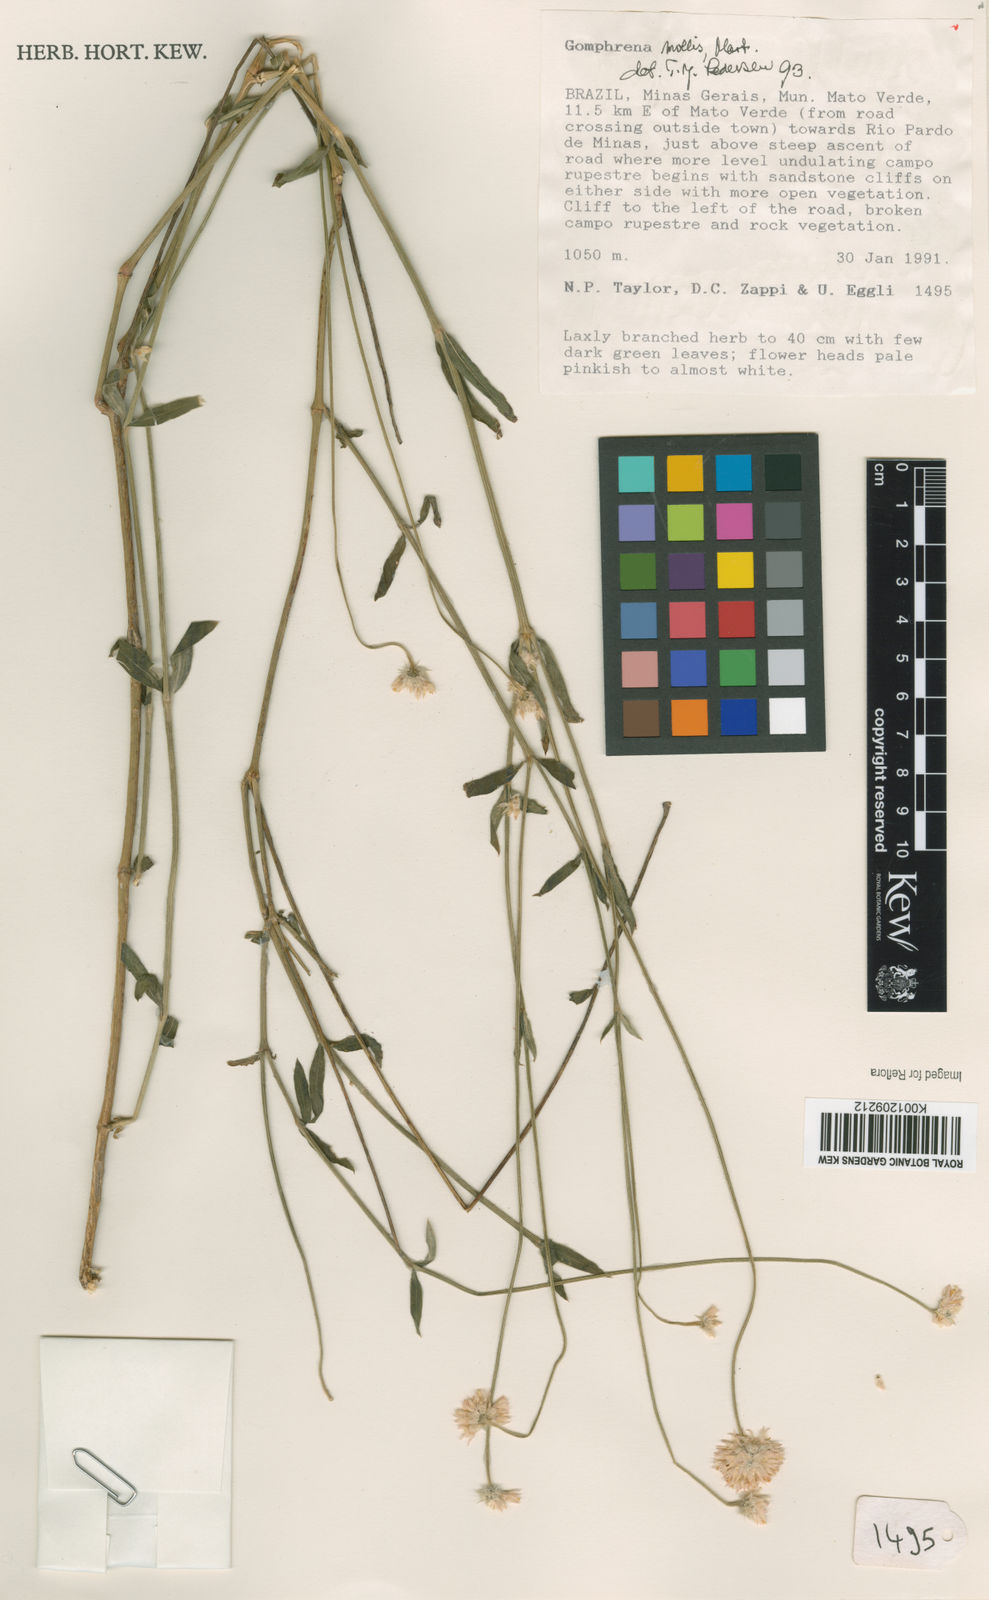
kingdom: Plantae
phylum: Tracheophyta
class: Magnoliopsida
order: Caryophyllales
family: Amaranthaceae
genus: Gomphrena
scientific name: Gomphrena mollis
